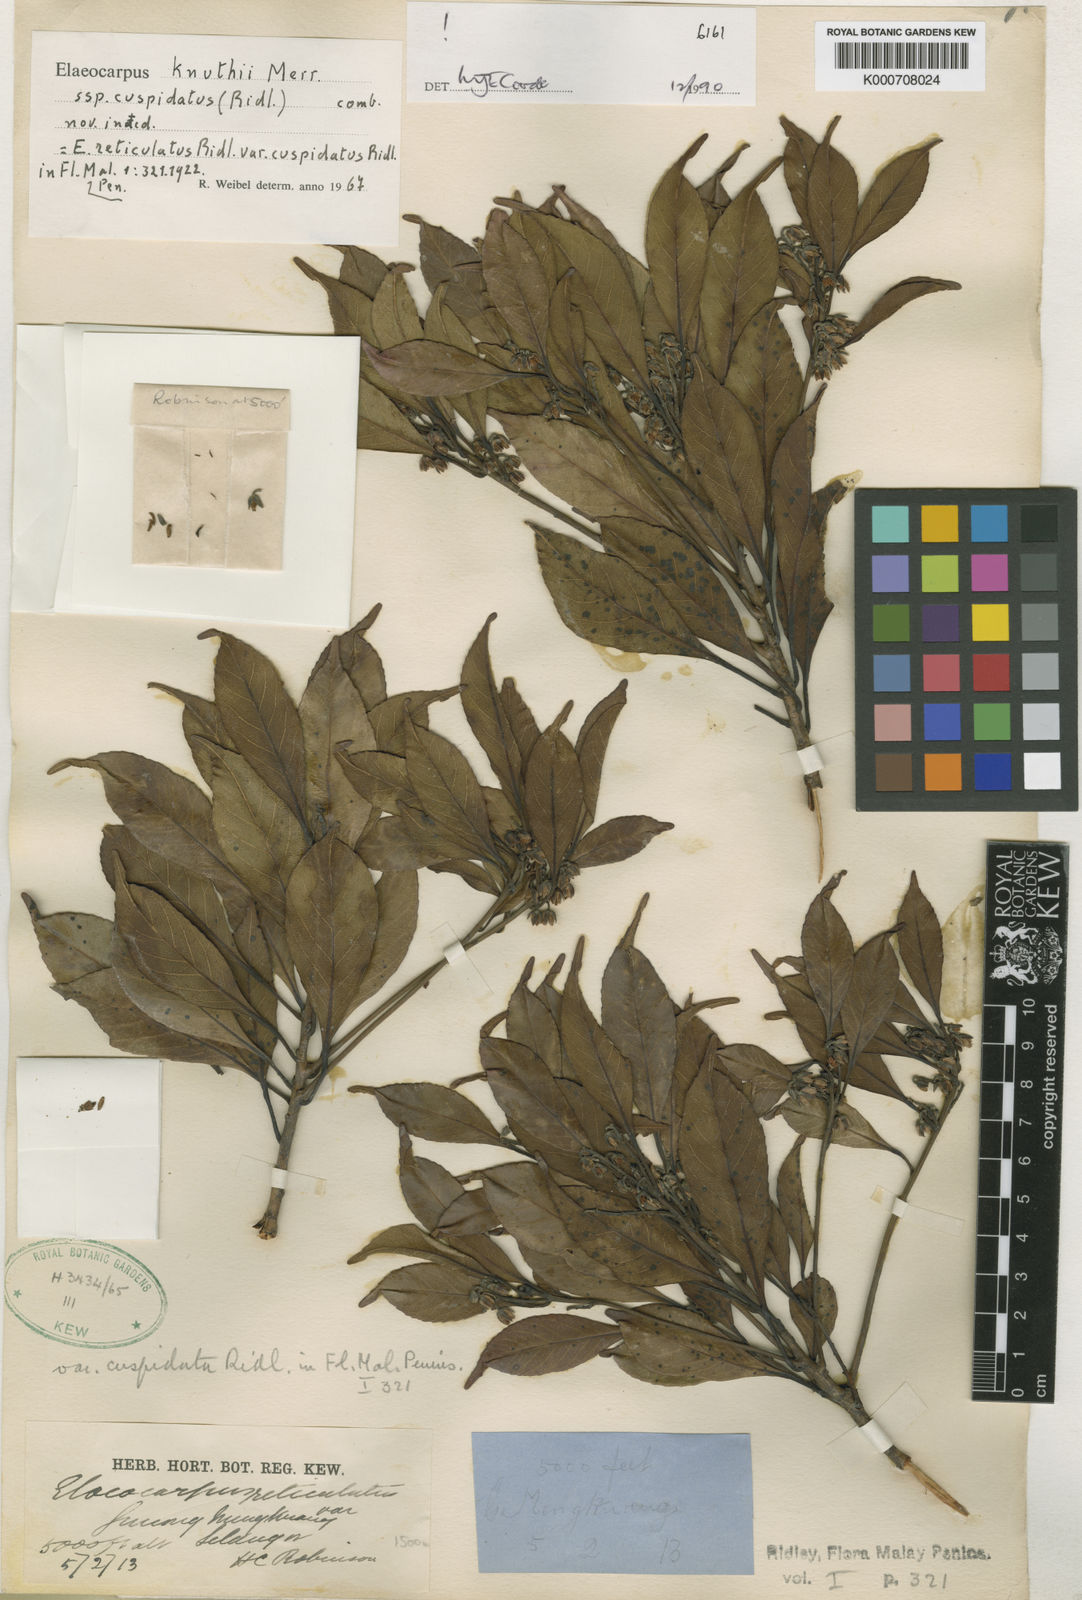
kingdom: Plantae
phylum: Tracheophyta
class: Magnoliopsida
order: Oxalidales
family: Elaeocarpaceae
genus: Elaeocarpus
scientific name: Elaeocarpus knuthii
